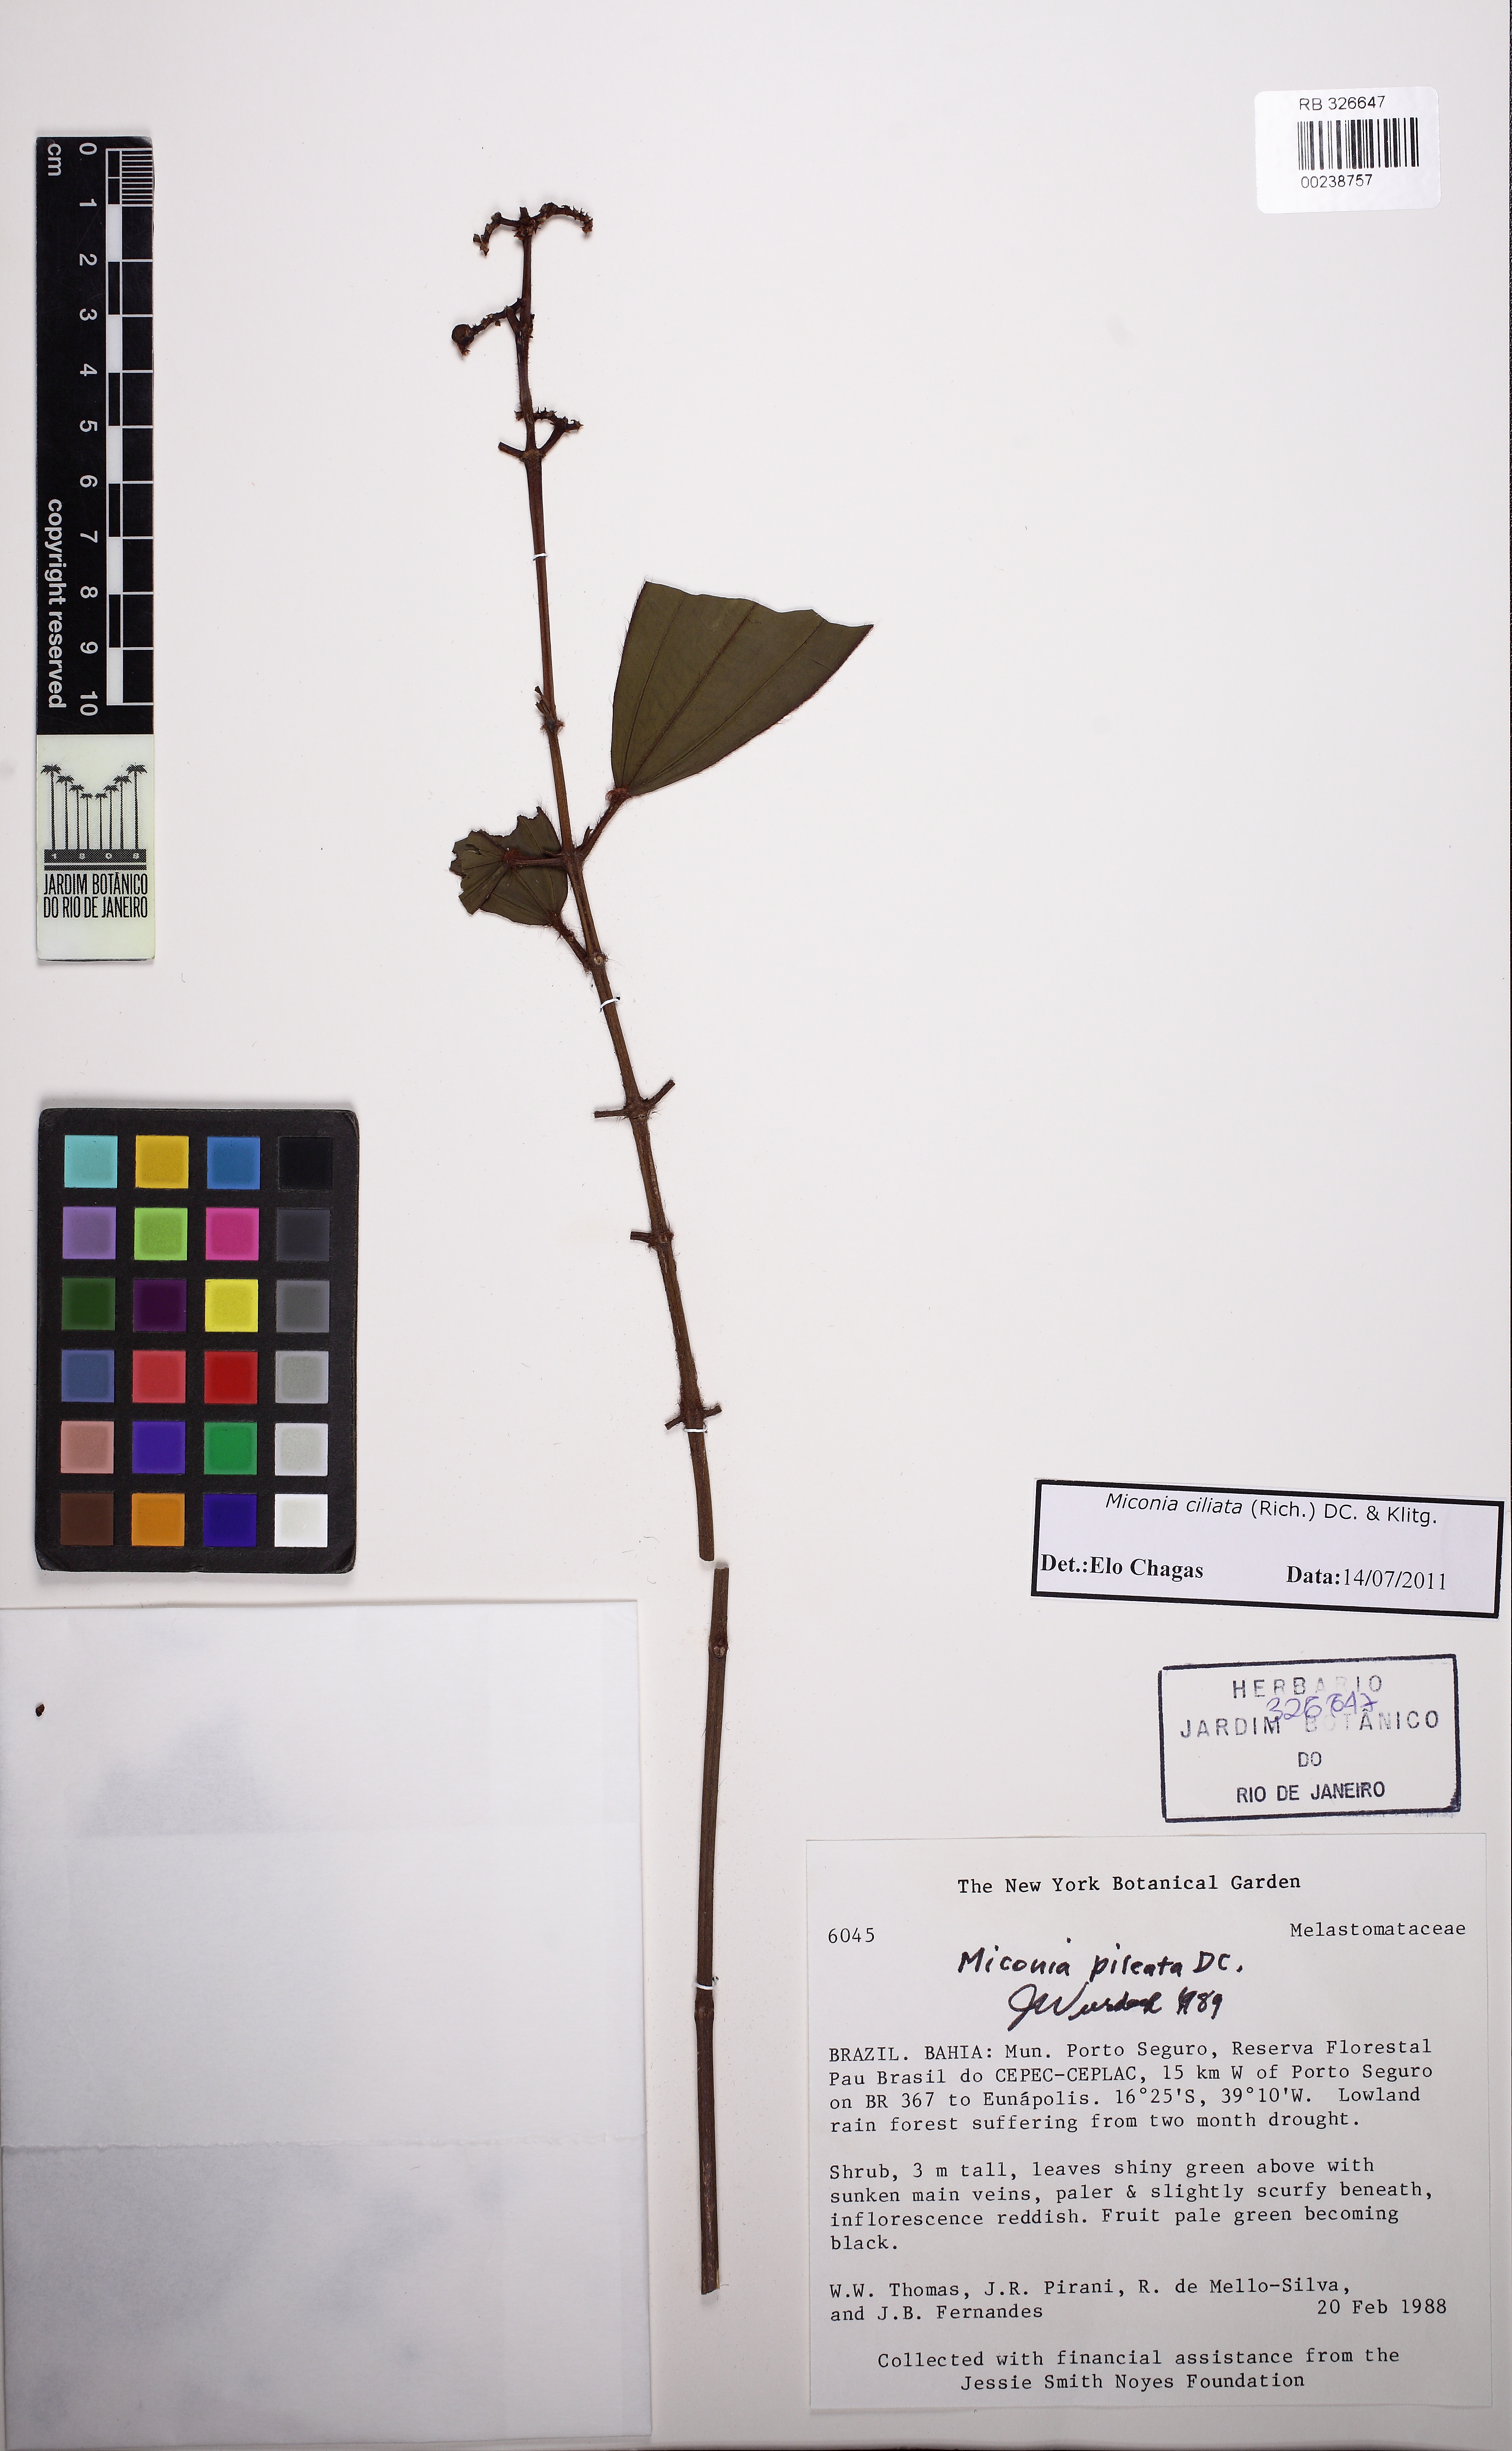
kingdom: Plantae
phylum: Tracheophyta
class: Magnoliopsida
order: Myrtales
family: Melastomataceae
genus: Miconia
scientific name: Miconia ciliata
